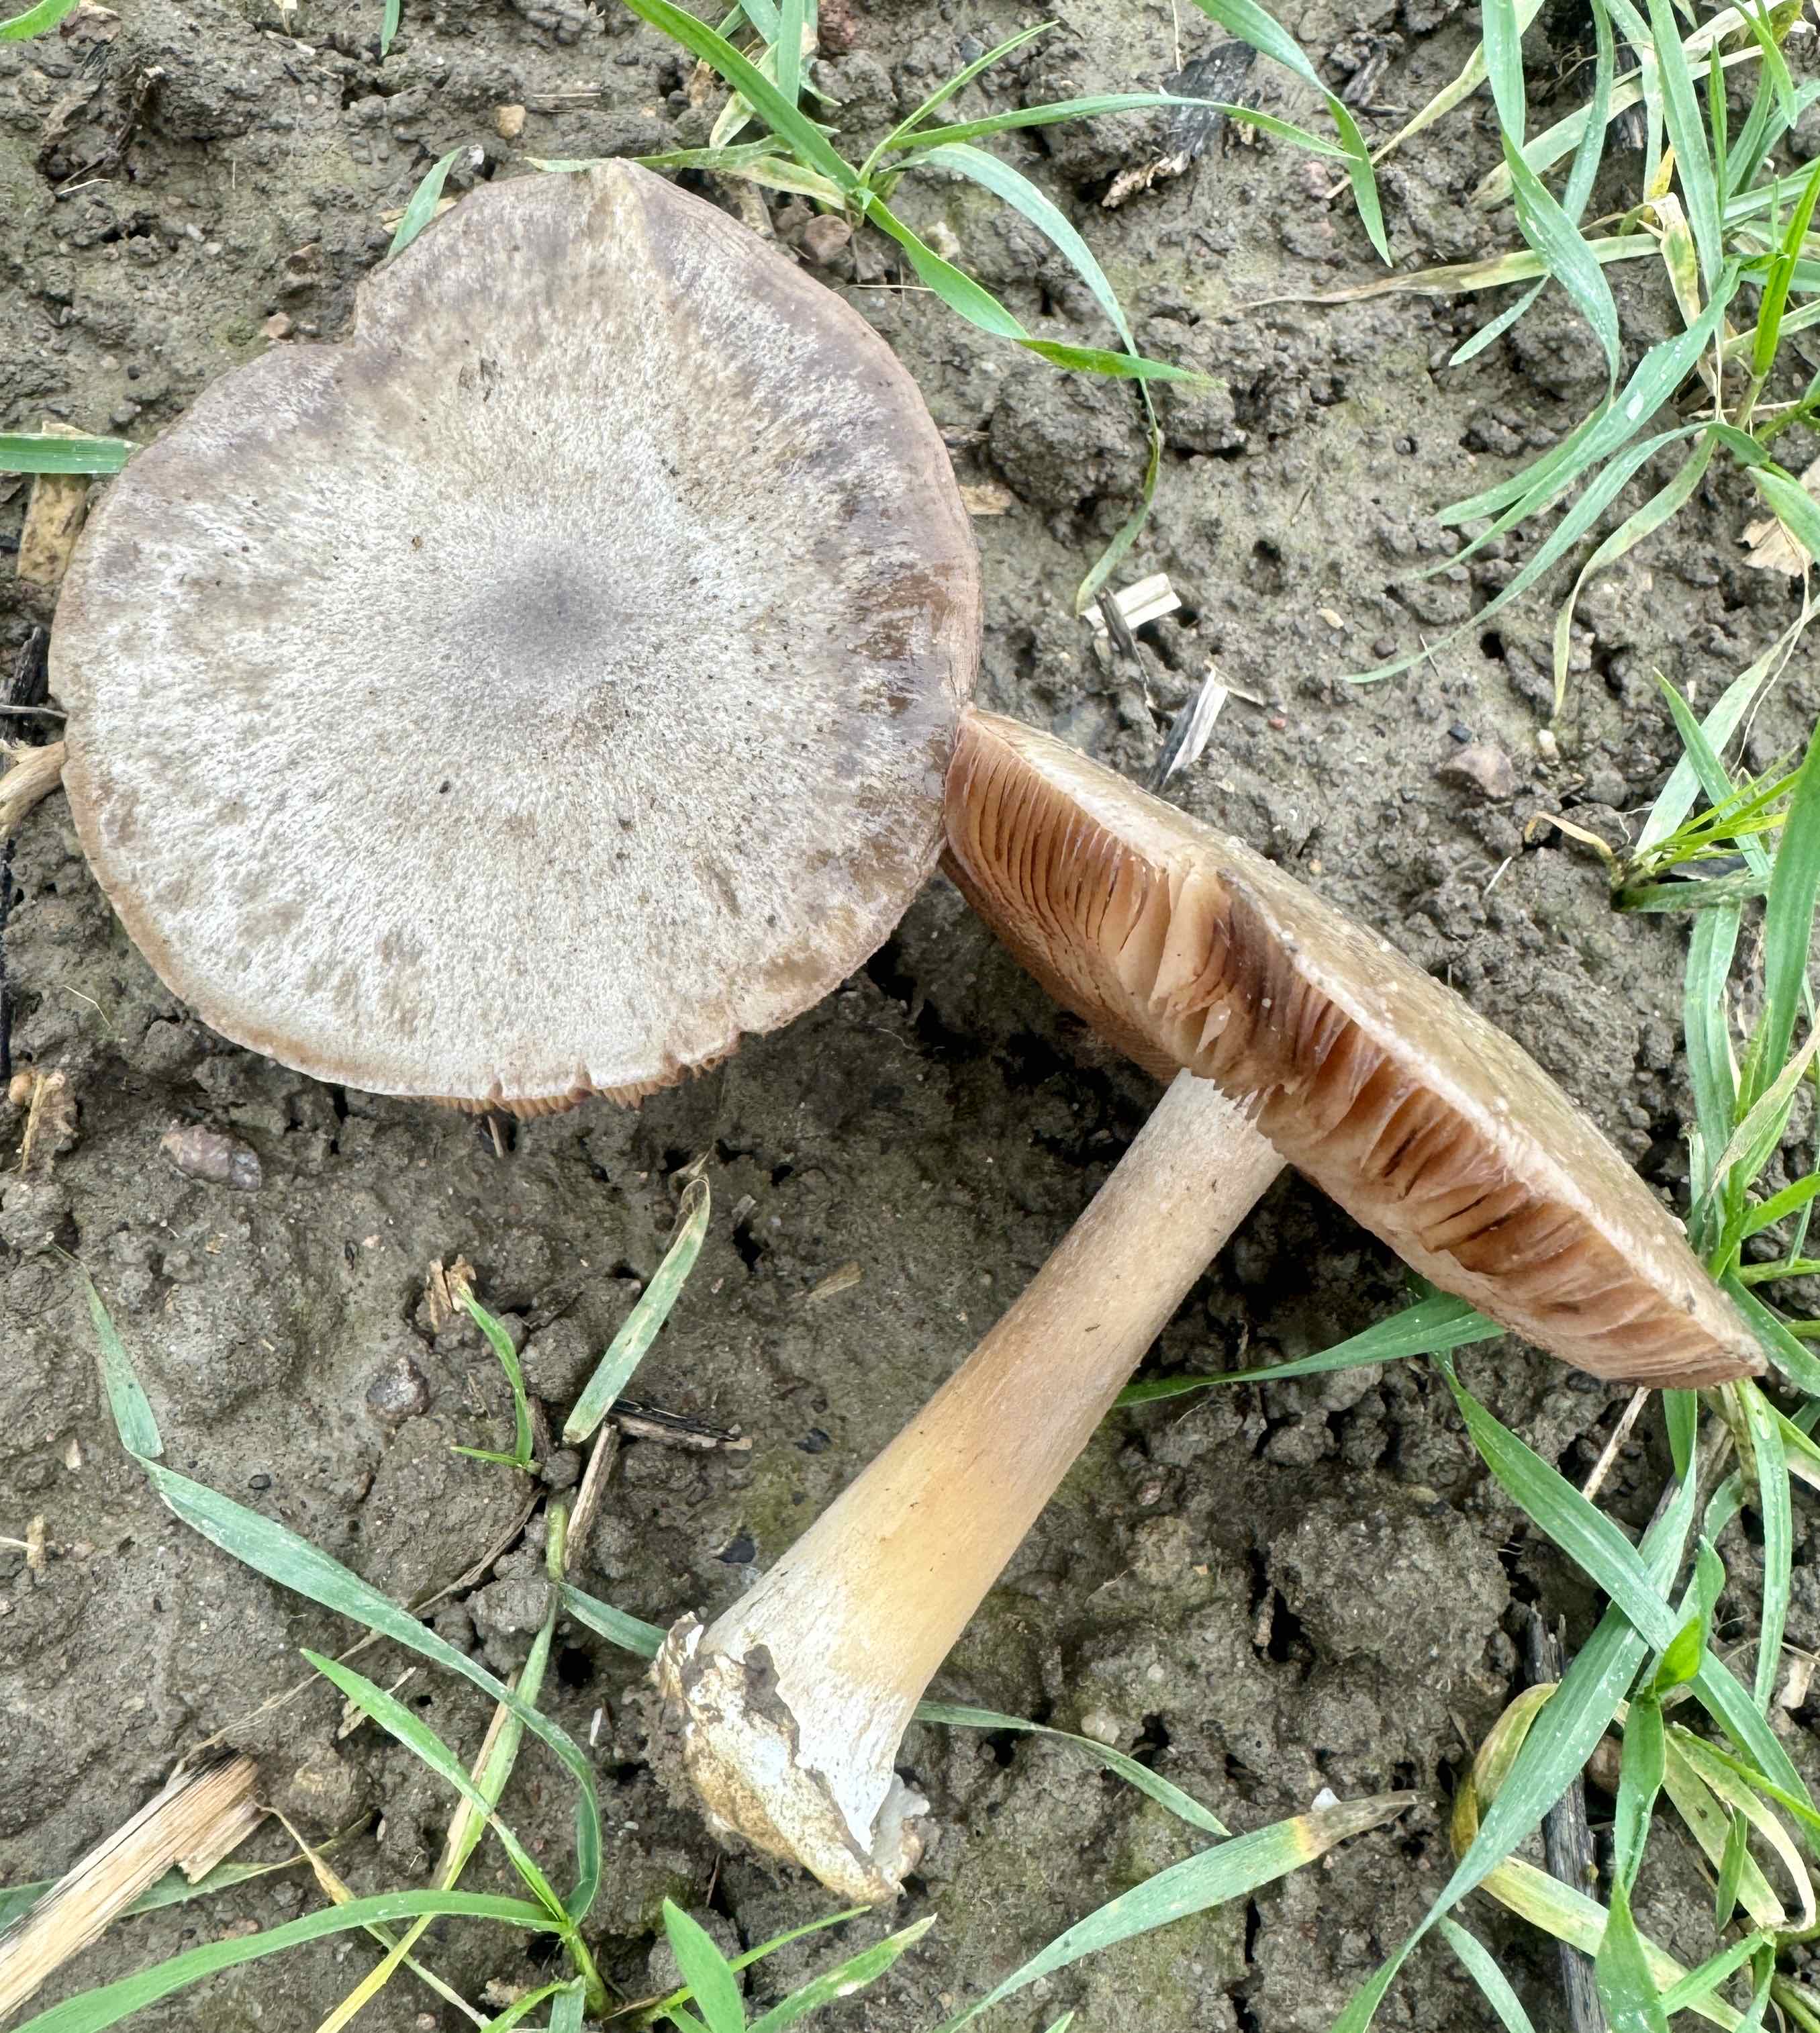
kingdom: Fungi
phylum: Basidiomycota
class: Agaricomycetes
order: Agaricales
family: Pluteaceae
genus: Volvopluteus
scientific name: Volvopluteus gloiocephalus
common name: høj posesvamp
